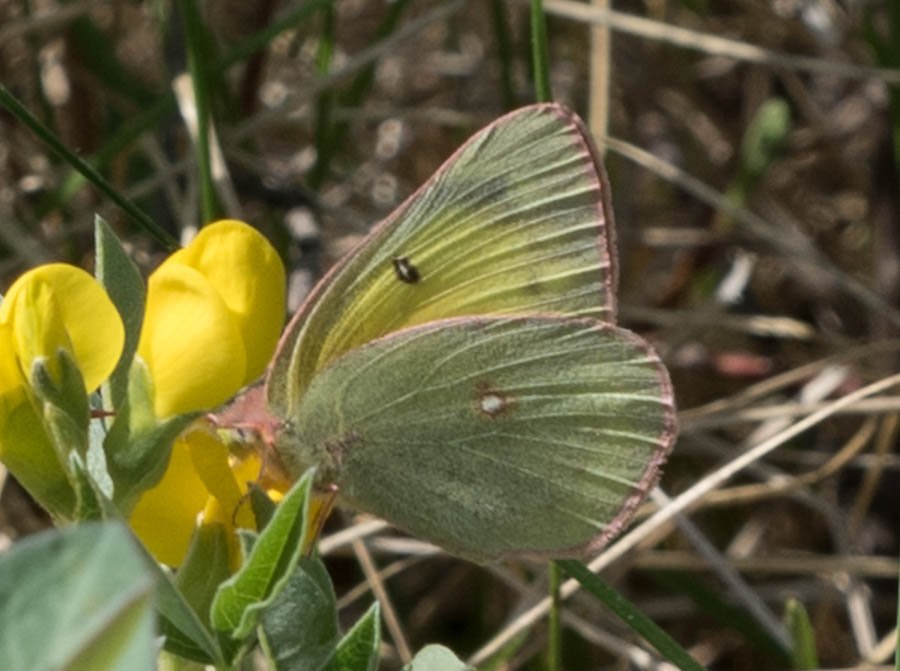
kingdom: Animalia
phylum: Arthropoda
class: Insecta
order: Lepidoptera
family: Pieridae
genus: Colias
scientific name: Colias philodice
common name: Clouded Sulphur
